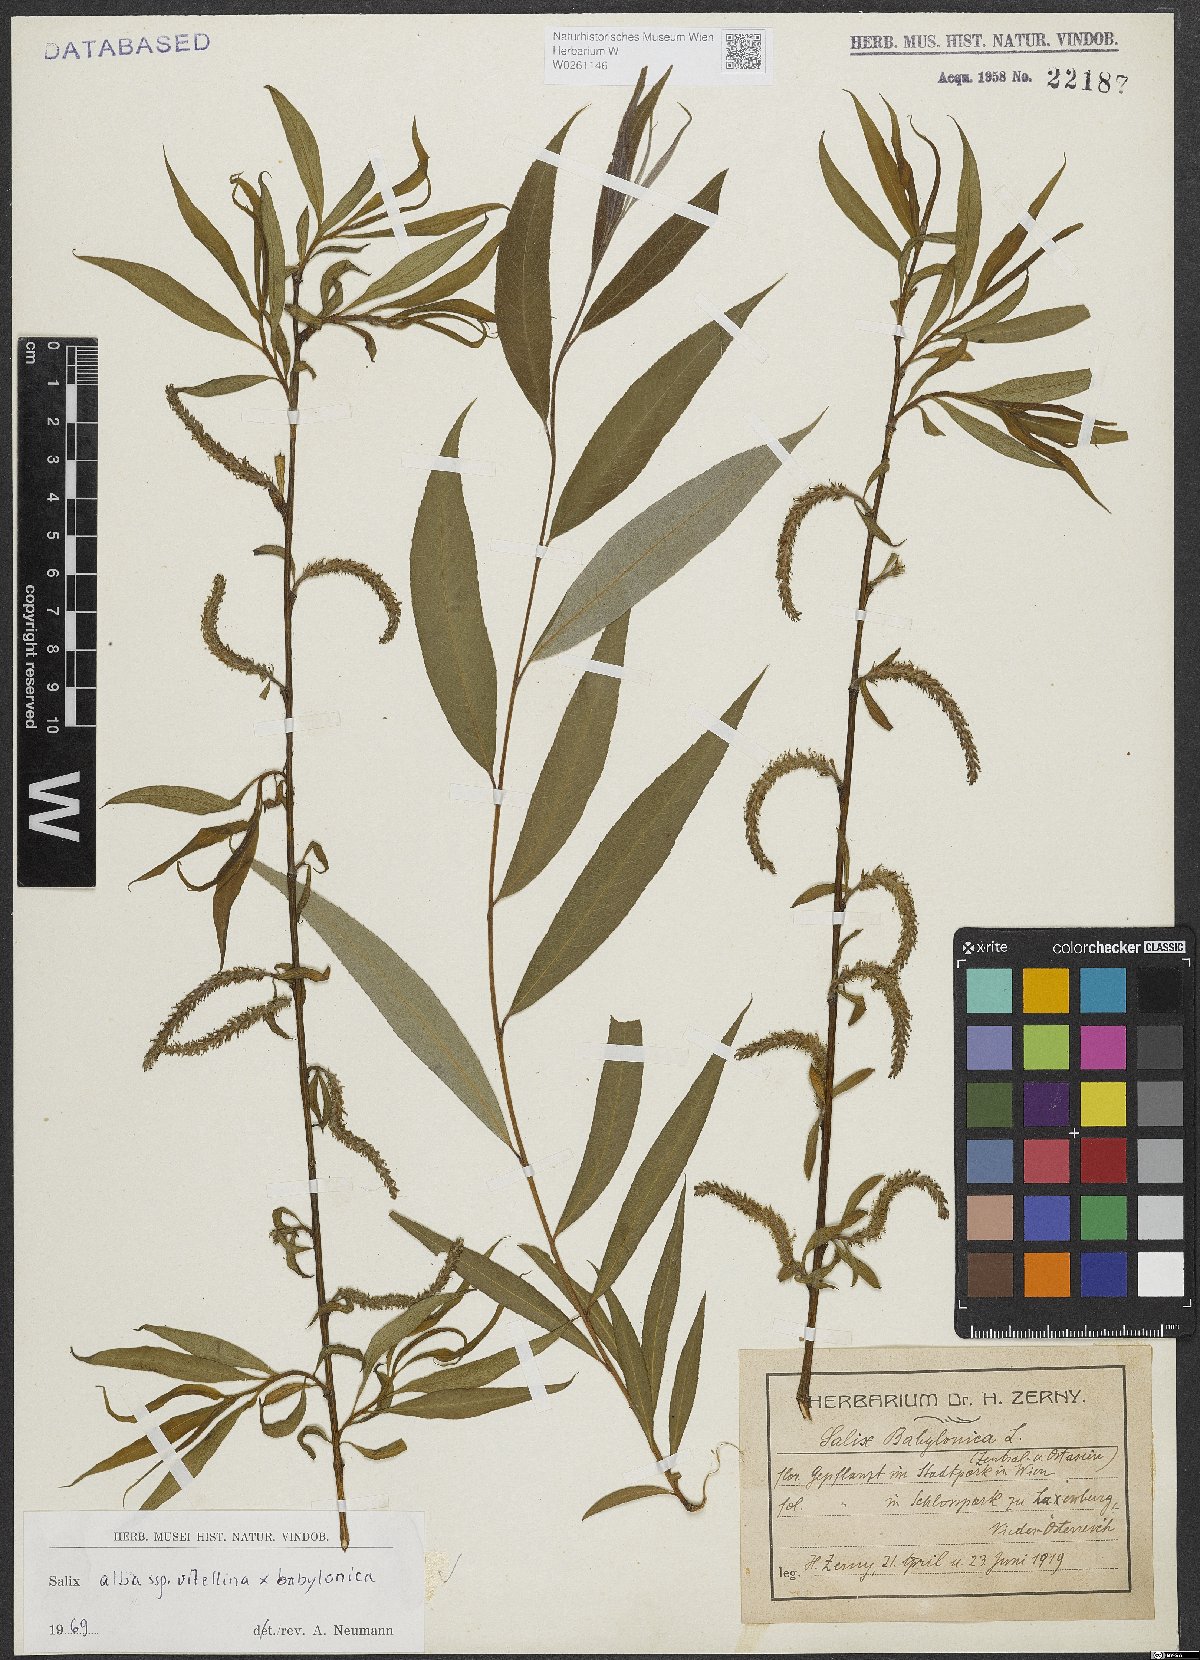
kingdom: Plantae
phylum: Tracheophyta
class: Magnoliopsida
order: Malpighiales
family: Salicaceae
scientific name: Salicaceae
